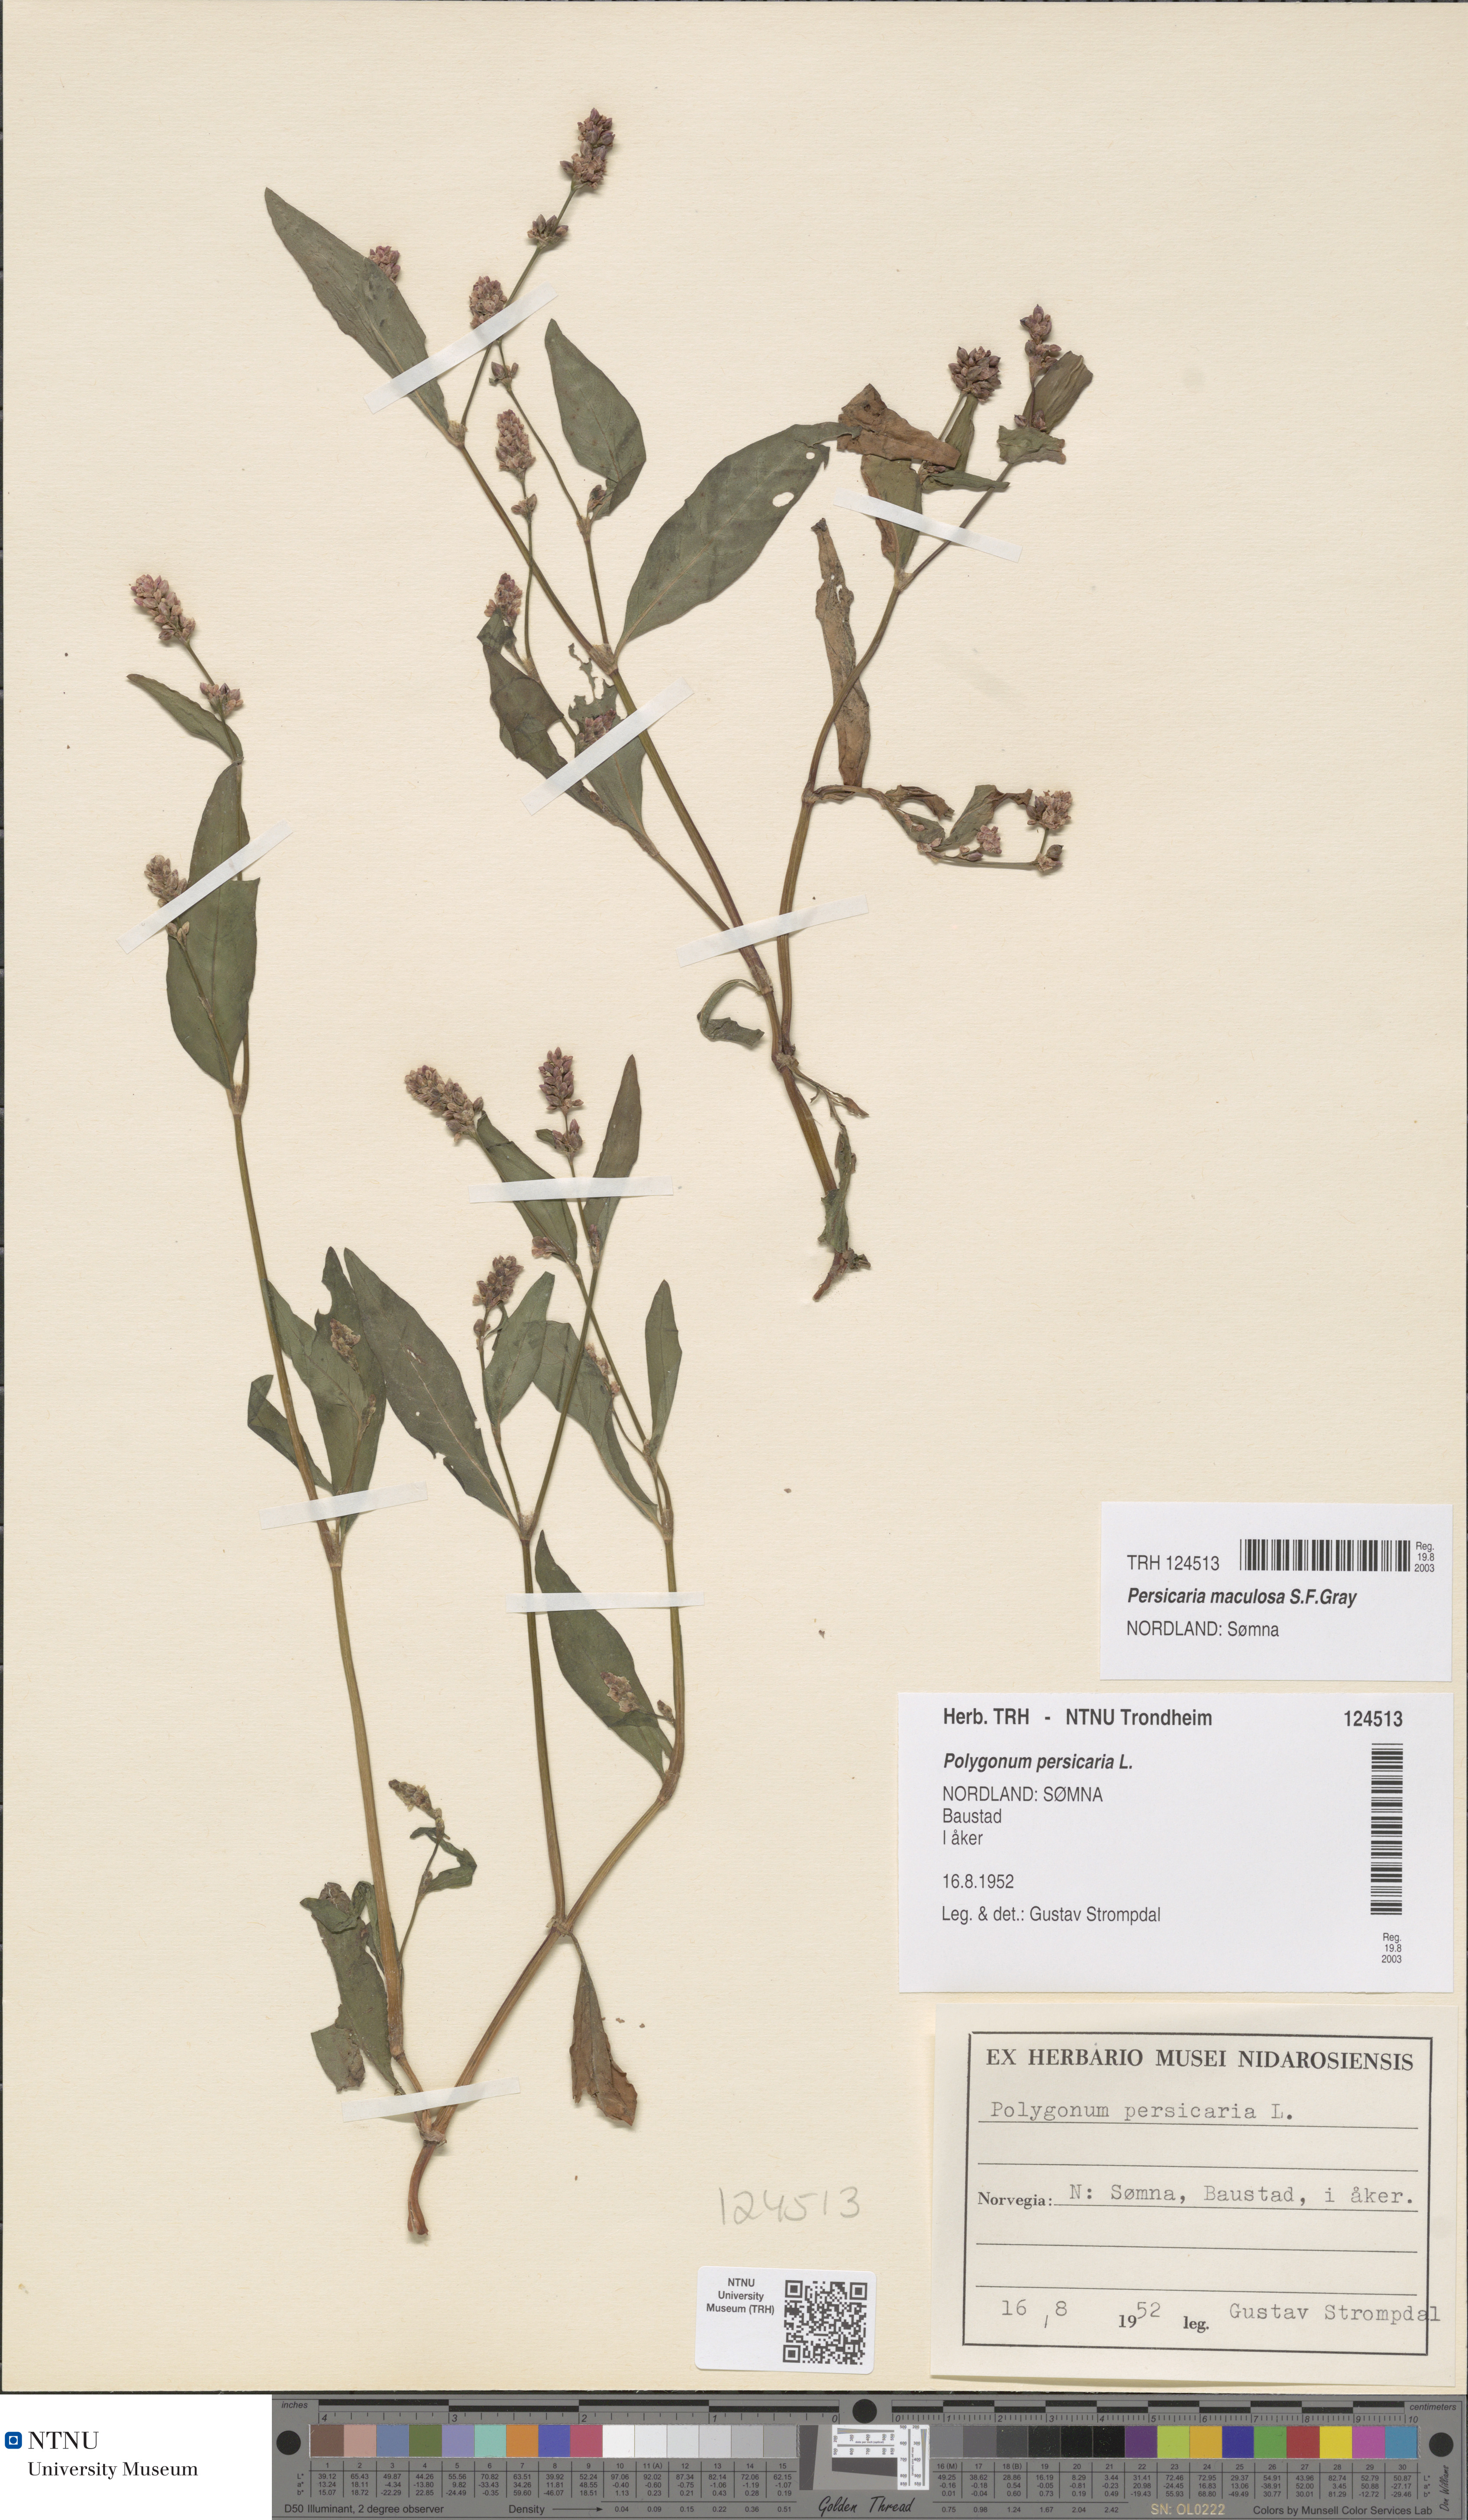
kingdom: Plantae
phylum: Tracheophyta
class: Magnoliopsida
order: Caryophyllales
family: Polygonaceae
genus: Persicaria
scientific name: Persicaria maculosa
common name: Redshank
